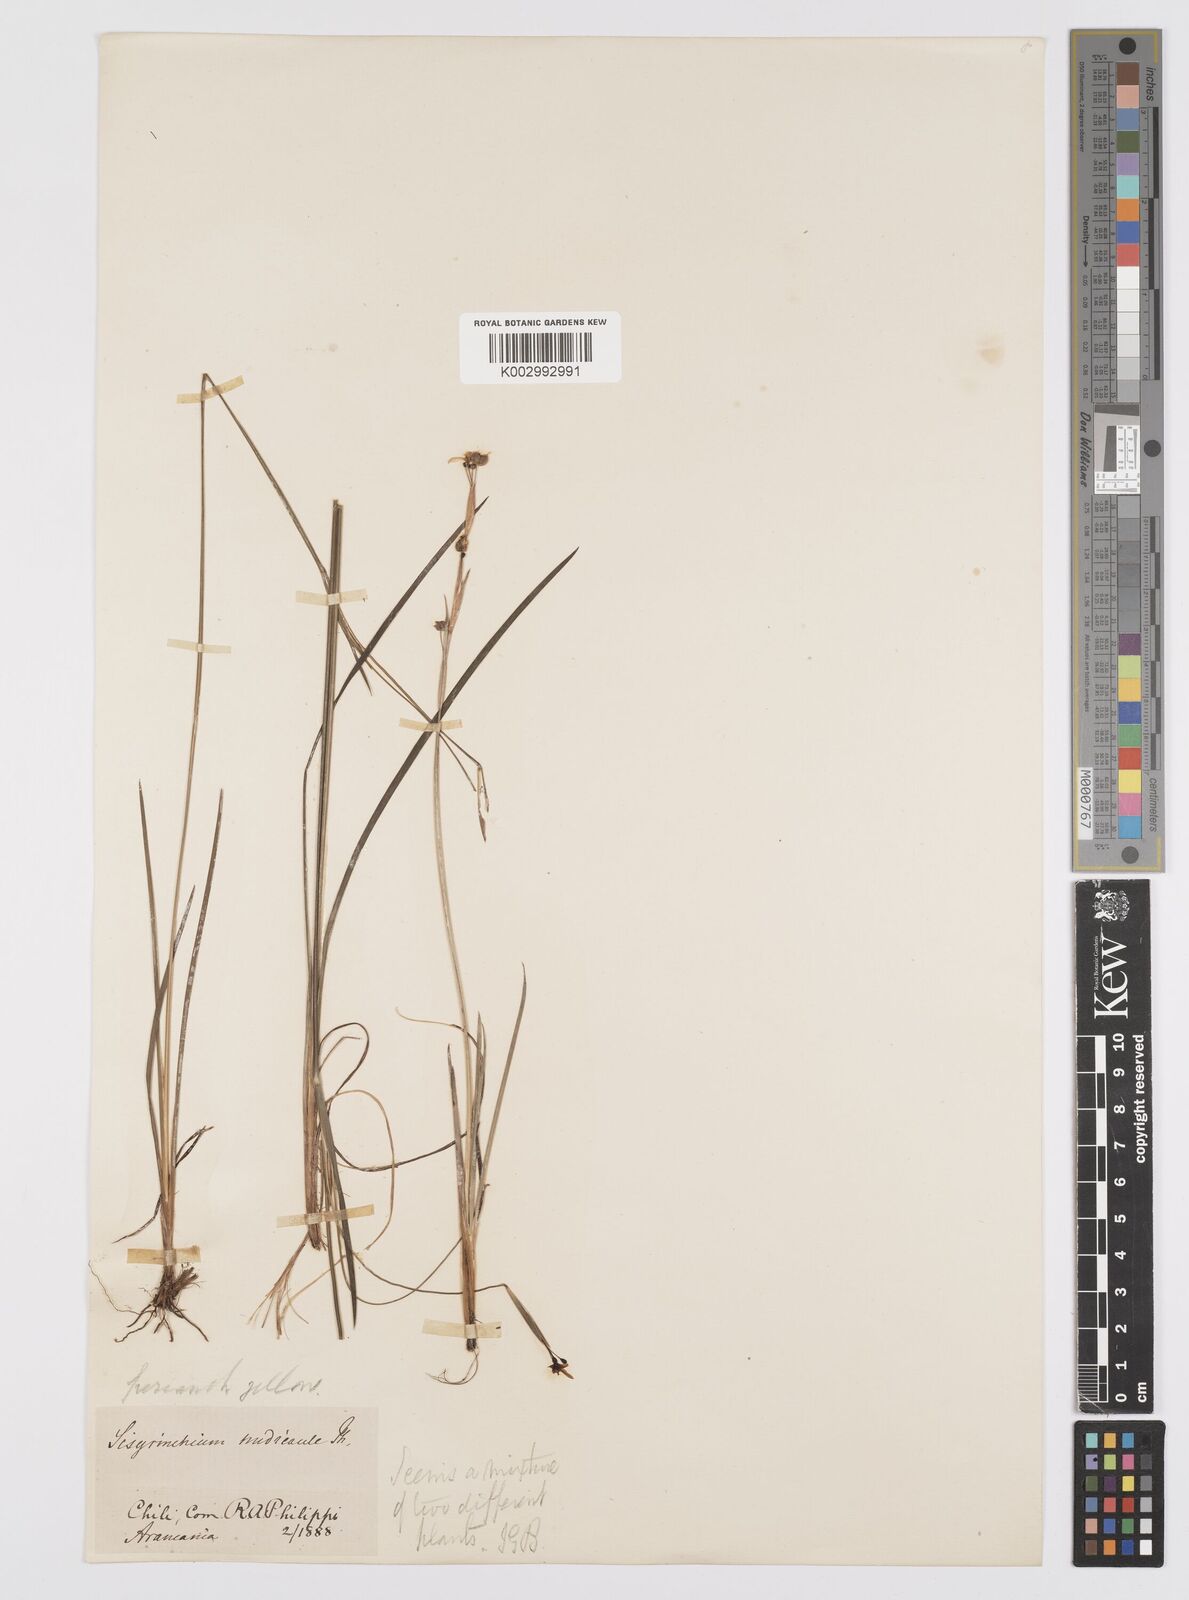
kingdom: Plantae
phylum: Tracheophyta
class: Liliopsida
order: Asparagales
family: Iridaceae
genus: Sisyrinchium
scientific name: Sisyrinchium patagonicum
